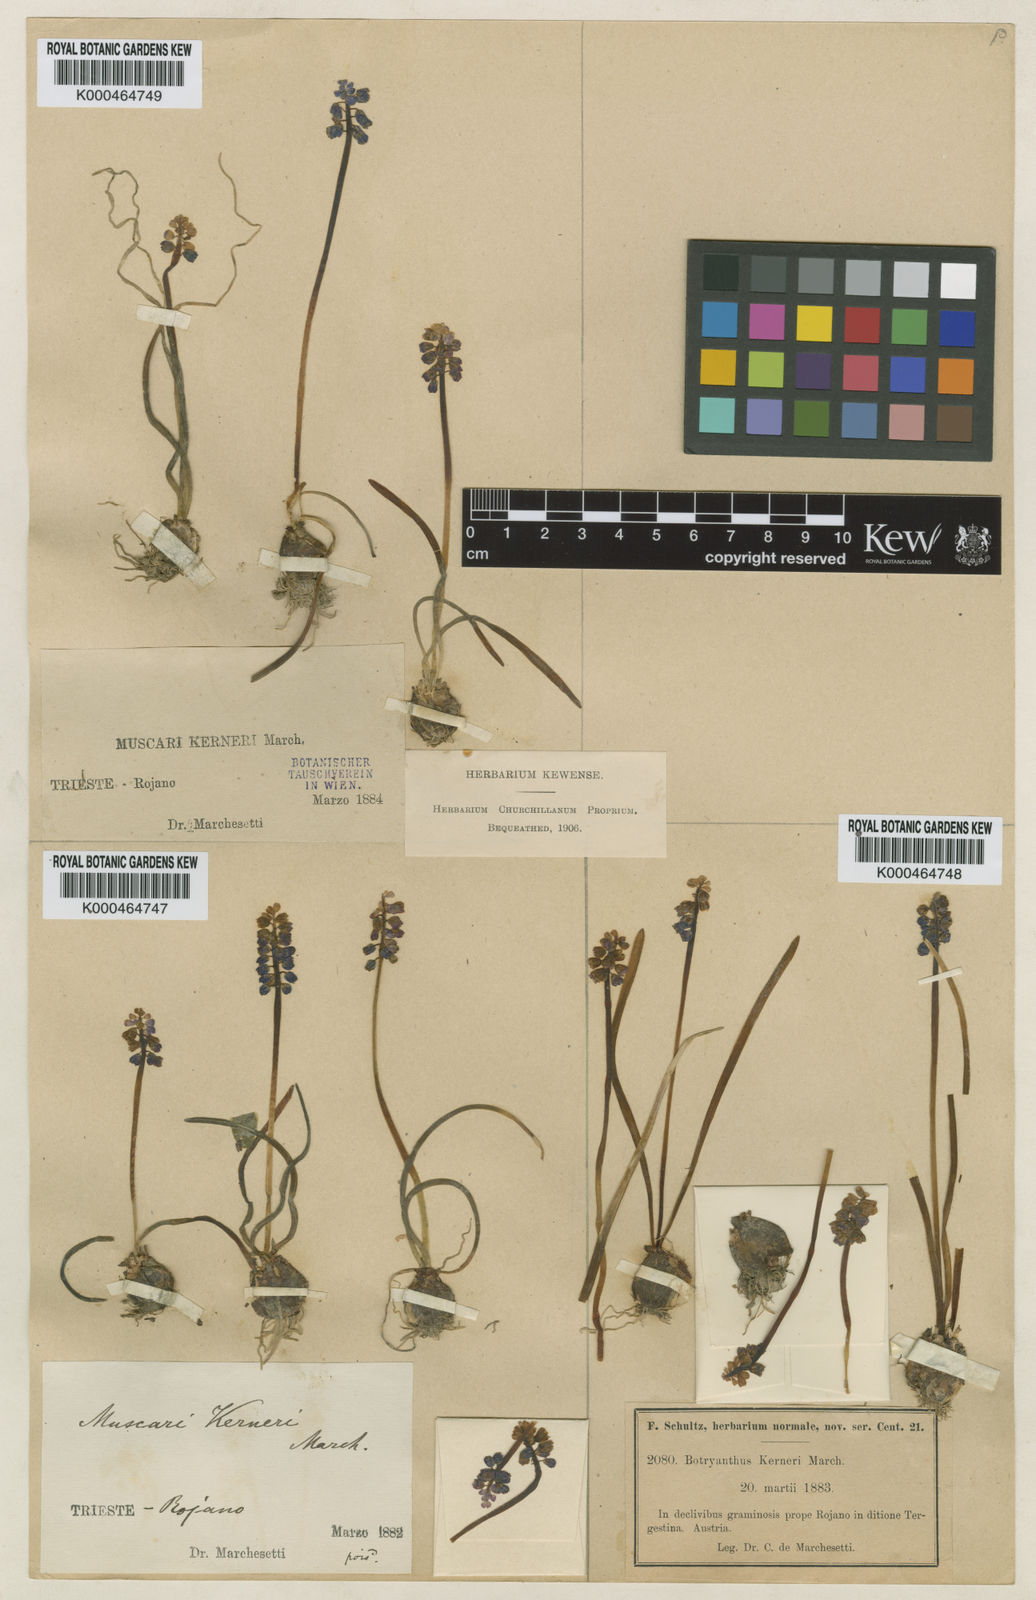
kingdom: Plantae
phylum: Tracheophyta
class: Liliopsida
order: Asparagales
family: Asparagaceae
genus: Muscari
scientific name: Muscari botryoides
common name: Compact grape-hyacinth
